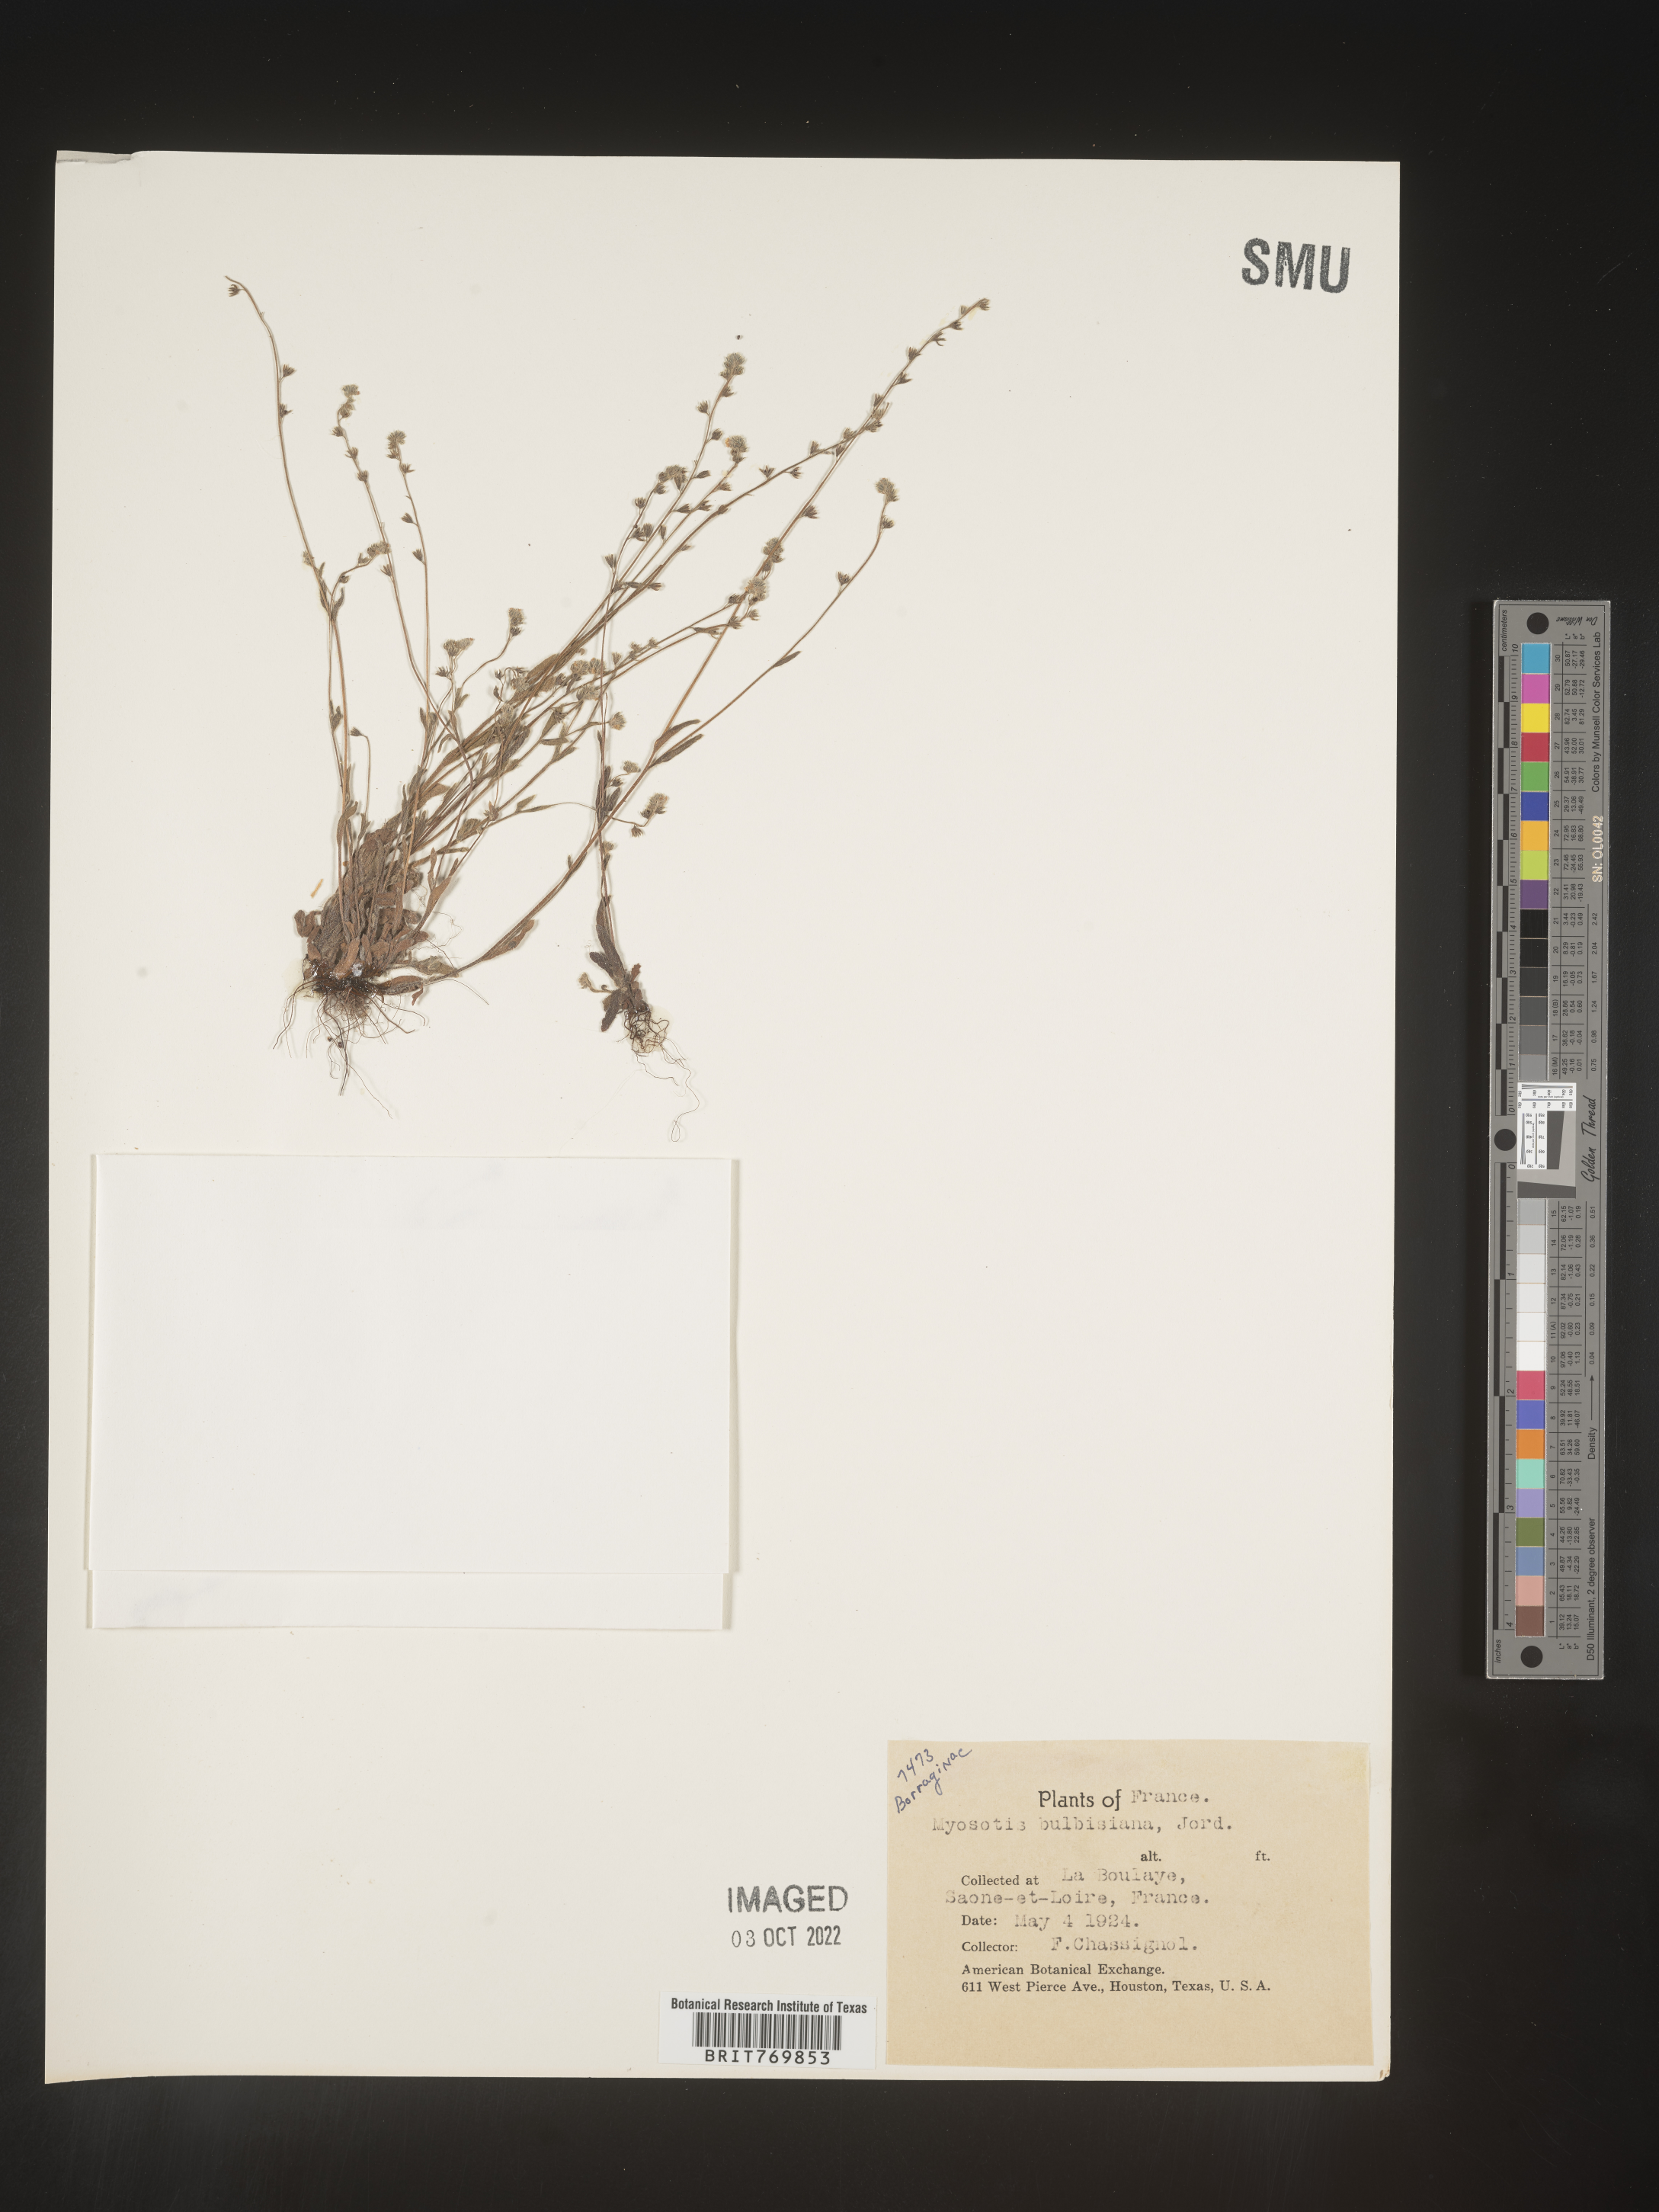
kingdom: Plantae
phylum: Tracheophyta
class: Magnoliopsida
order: Boraginales
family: Boraginaceae
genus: Myosotis
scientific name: Myosotis
